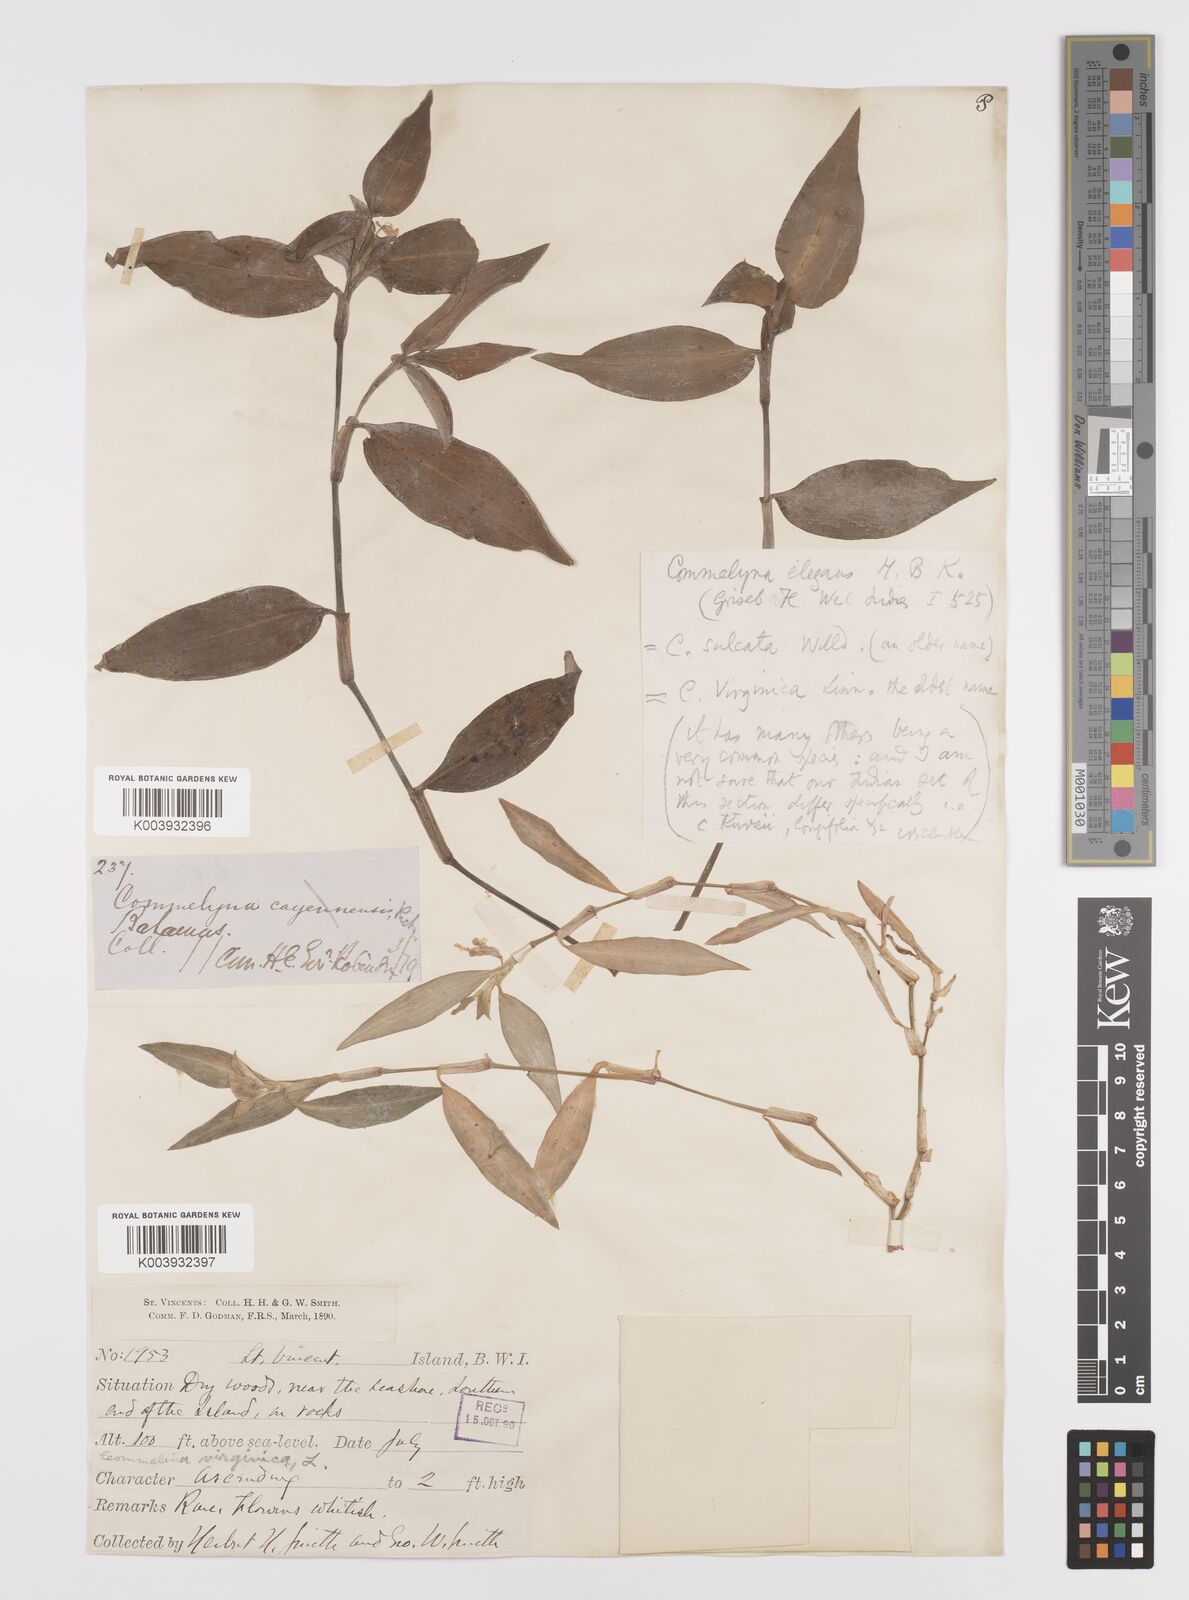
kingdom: Plantae
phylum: Tracheophyta
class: Liliopsida
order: Commelinales
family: Commelinaceae
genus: Commelina
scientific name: Commelina virginica
